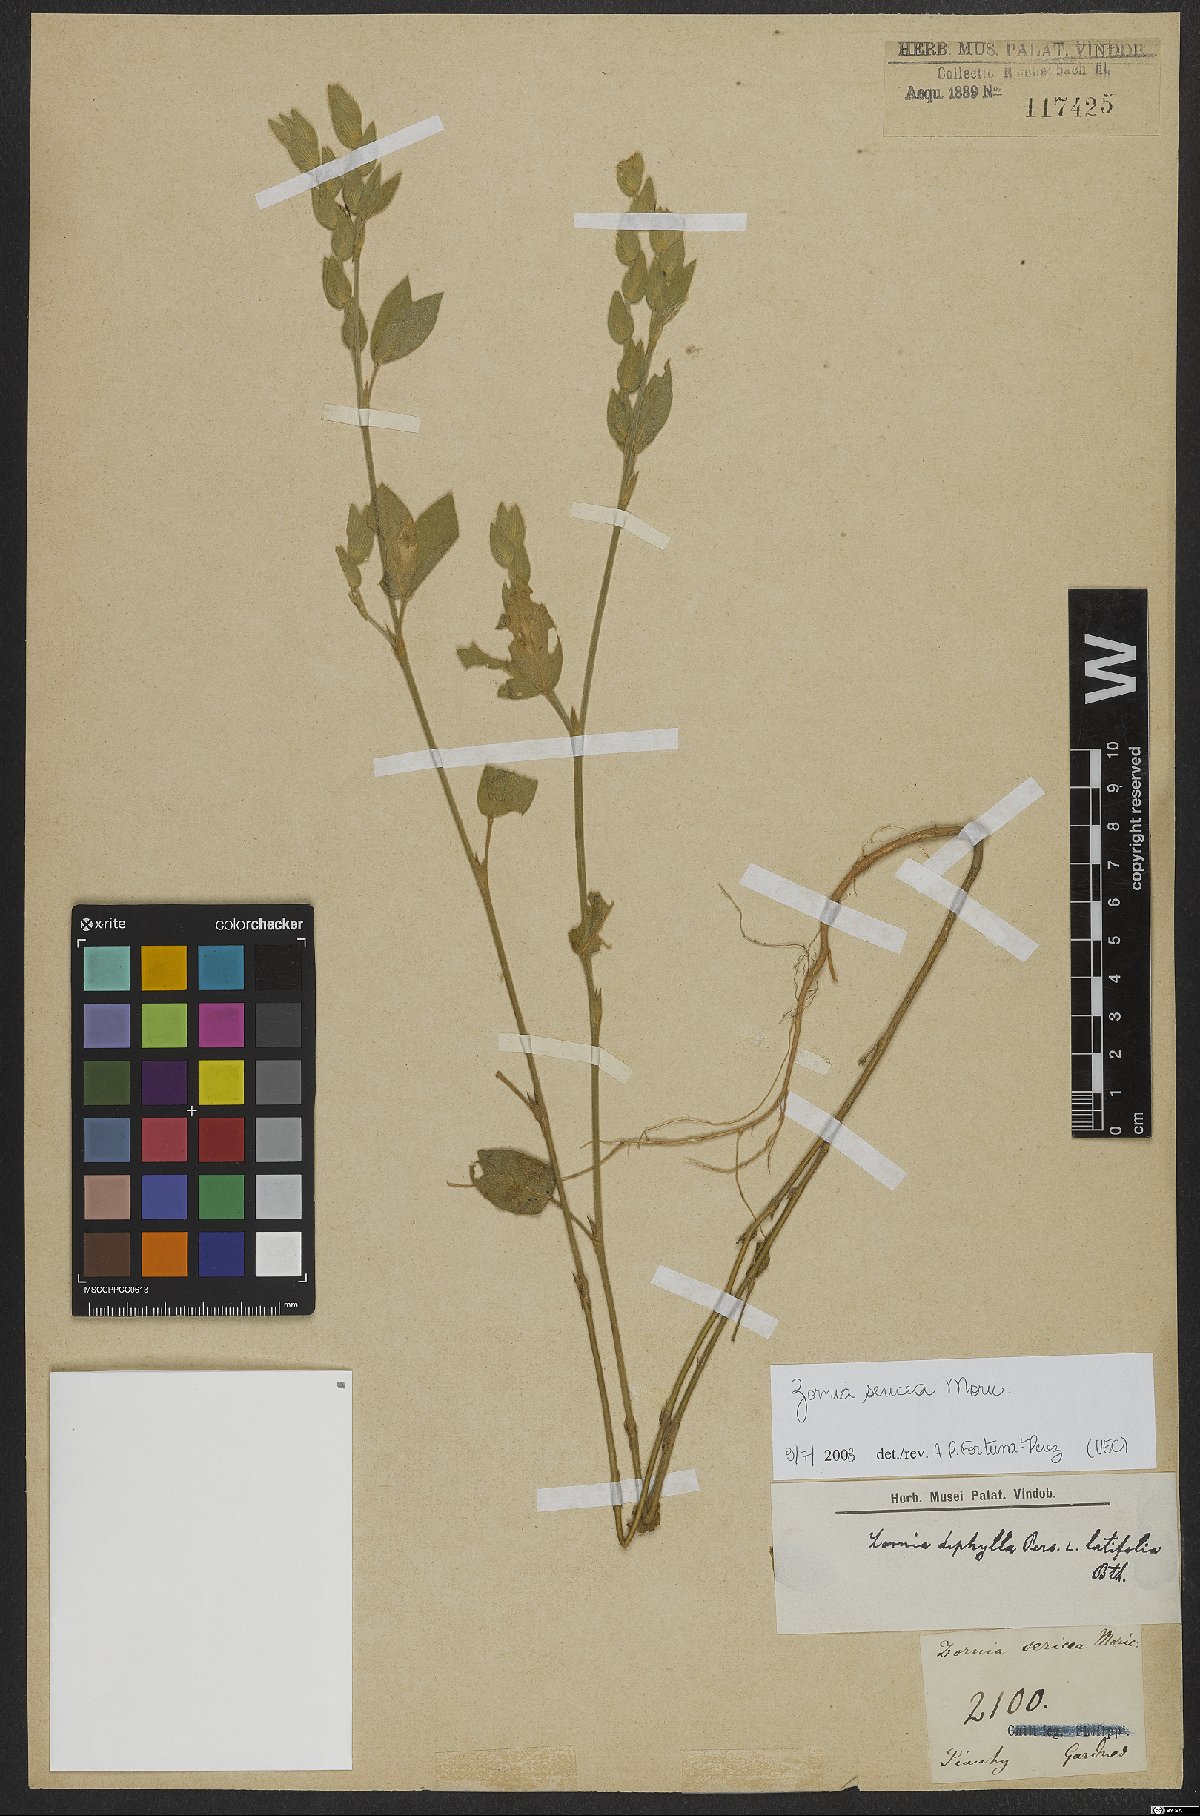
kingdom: Plantae
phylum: Tracheophyta
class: Magnoliopsida
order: Fabales
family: Fabaceae
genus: Zornia
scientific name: Zornia sericea
